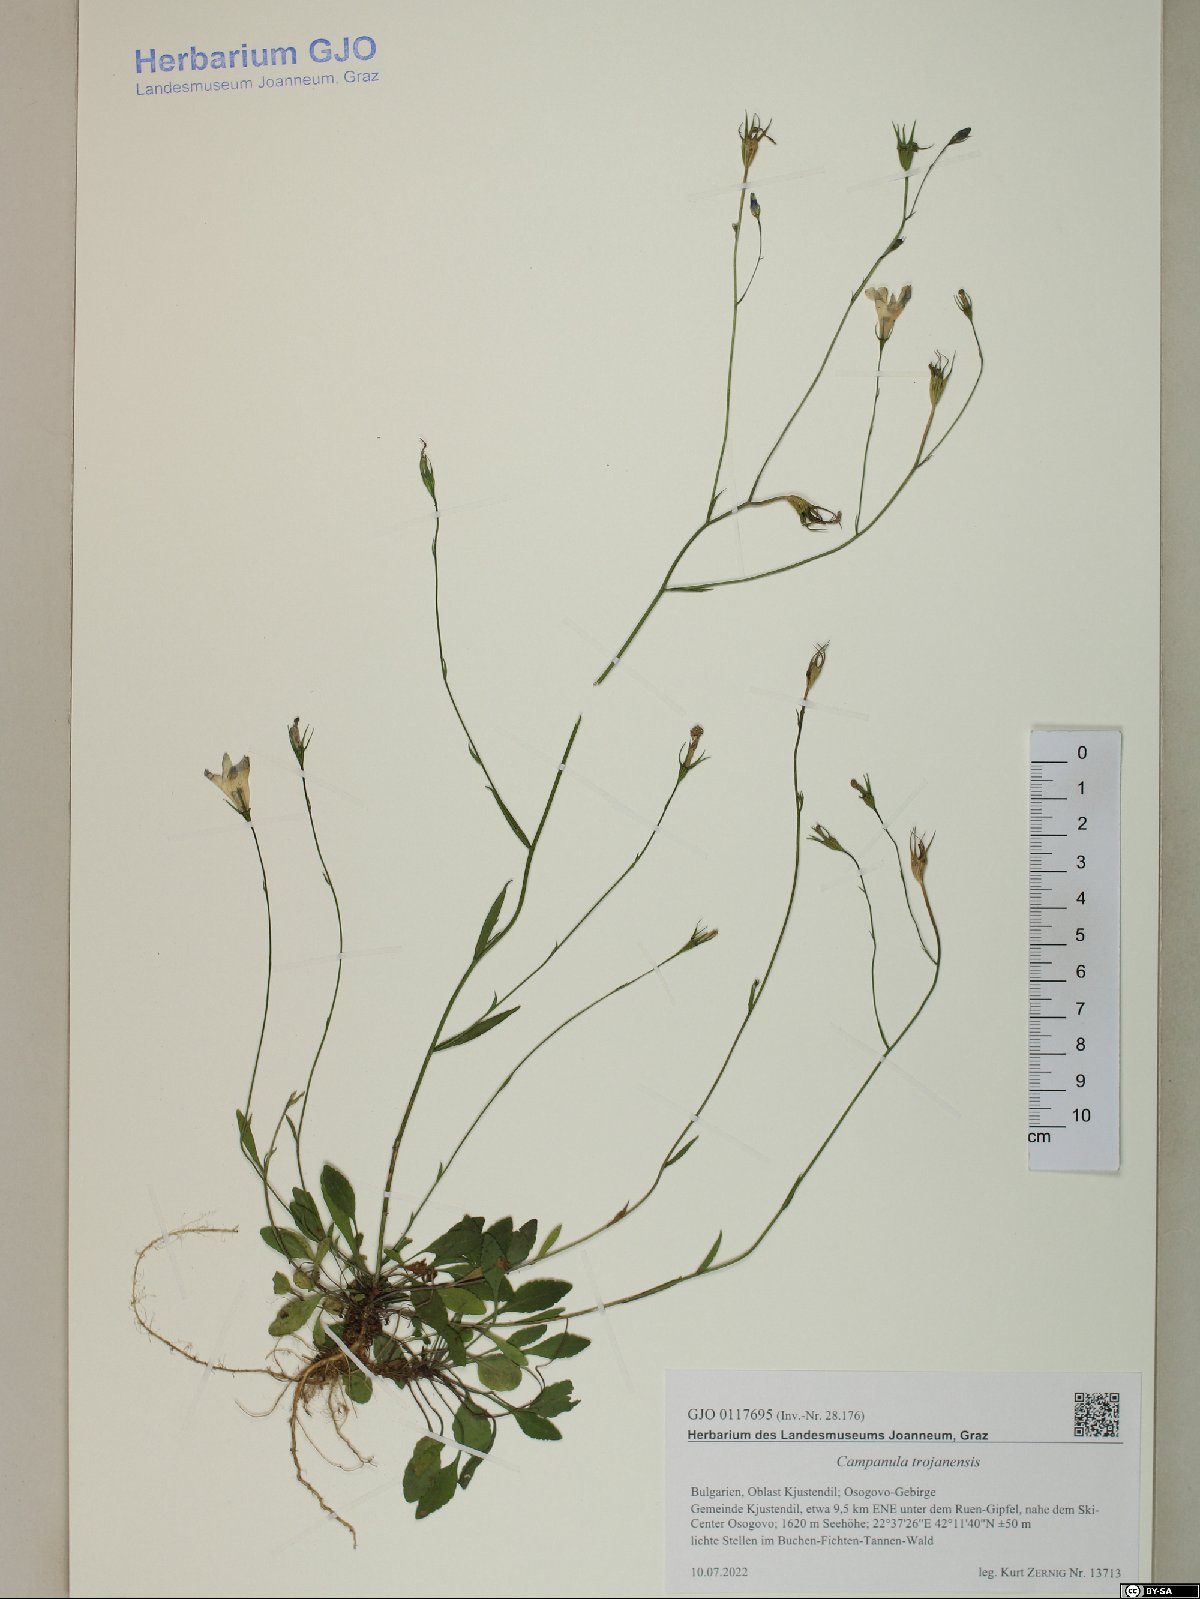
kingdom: Plantae
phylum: Tracheophyta
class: Magnoliopsida
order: Asterales
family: Campanulaceae
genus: Campanula
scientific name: Campanula trojanensis
